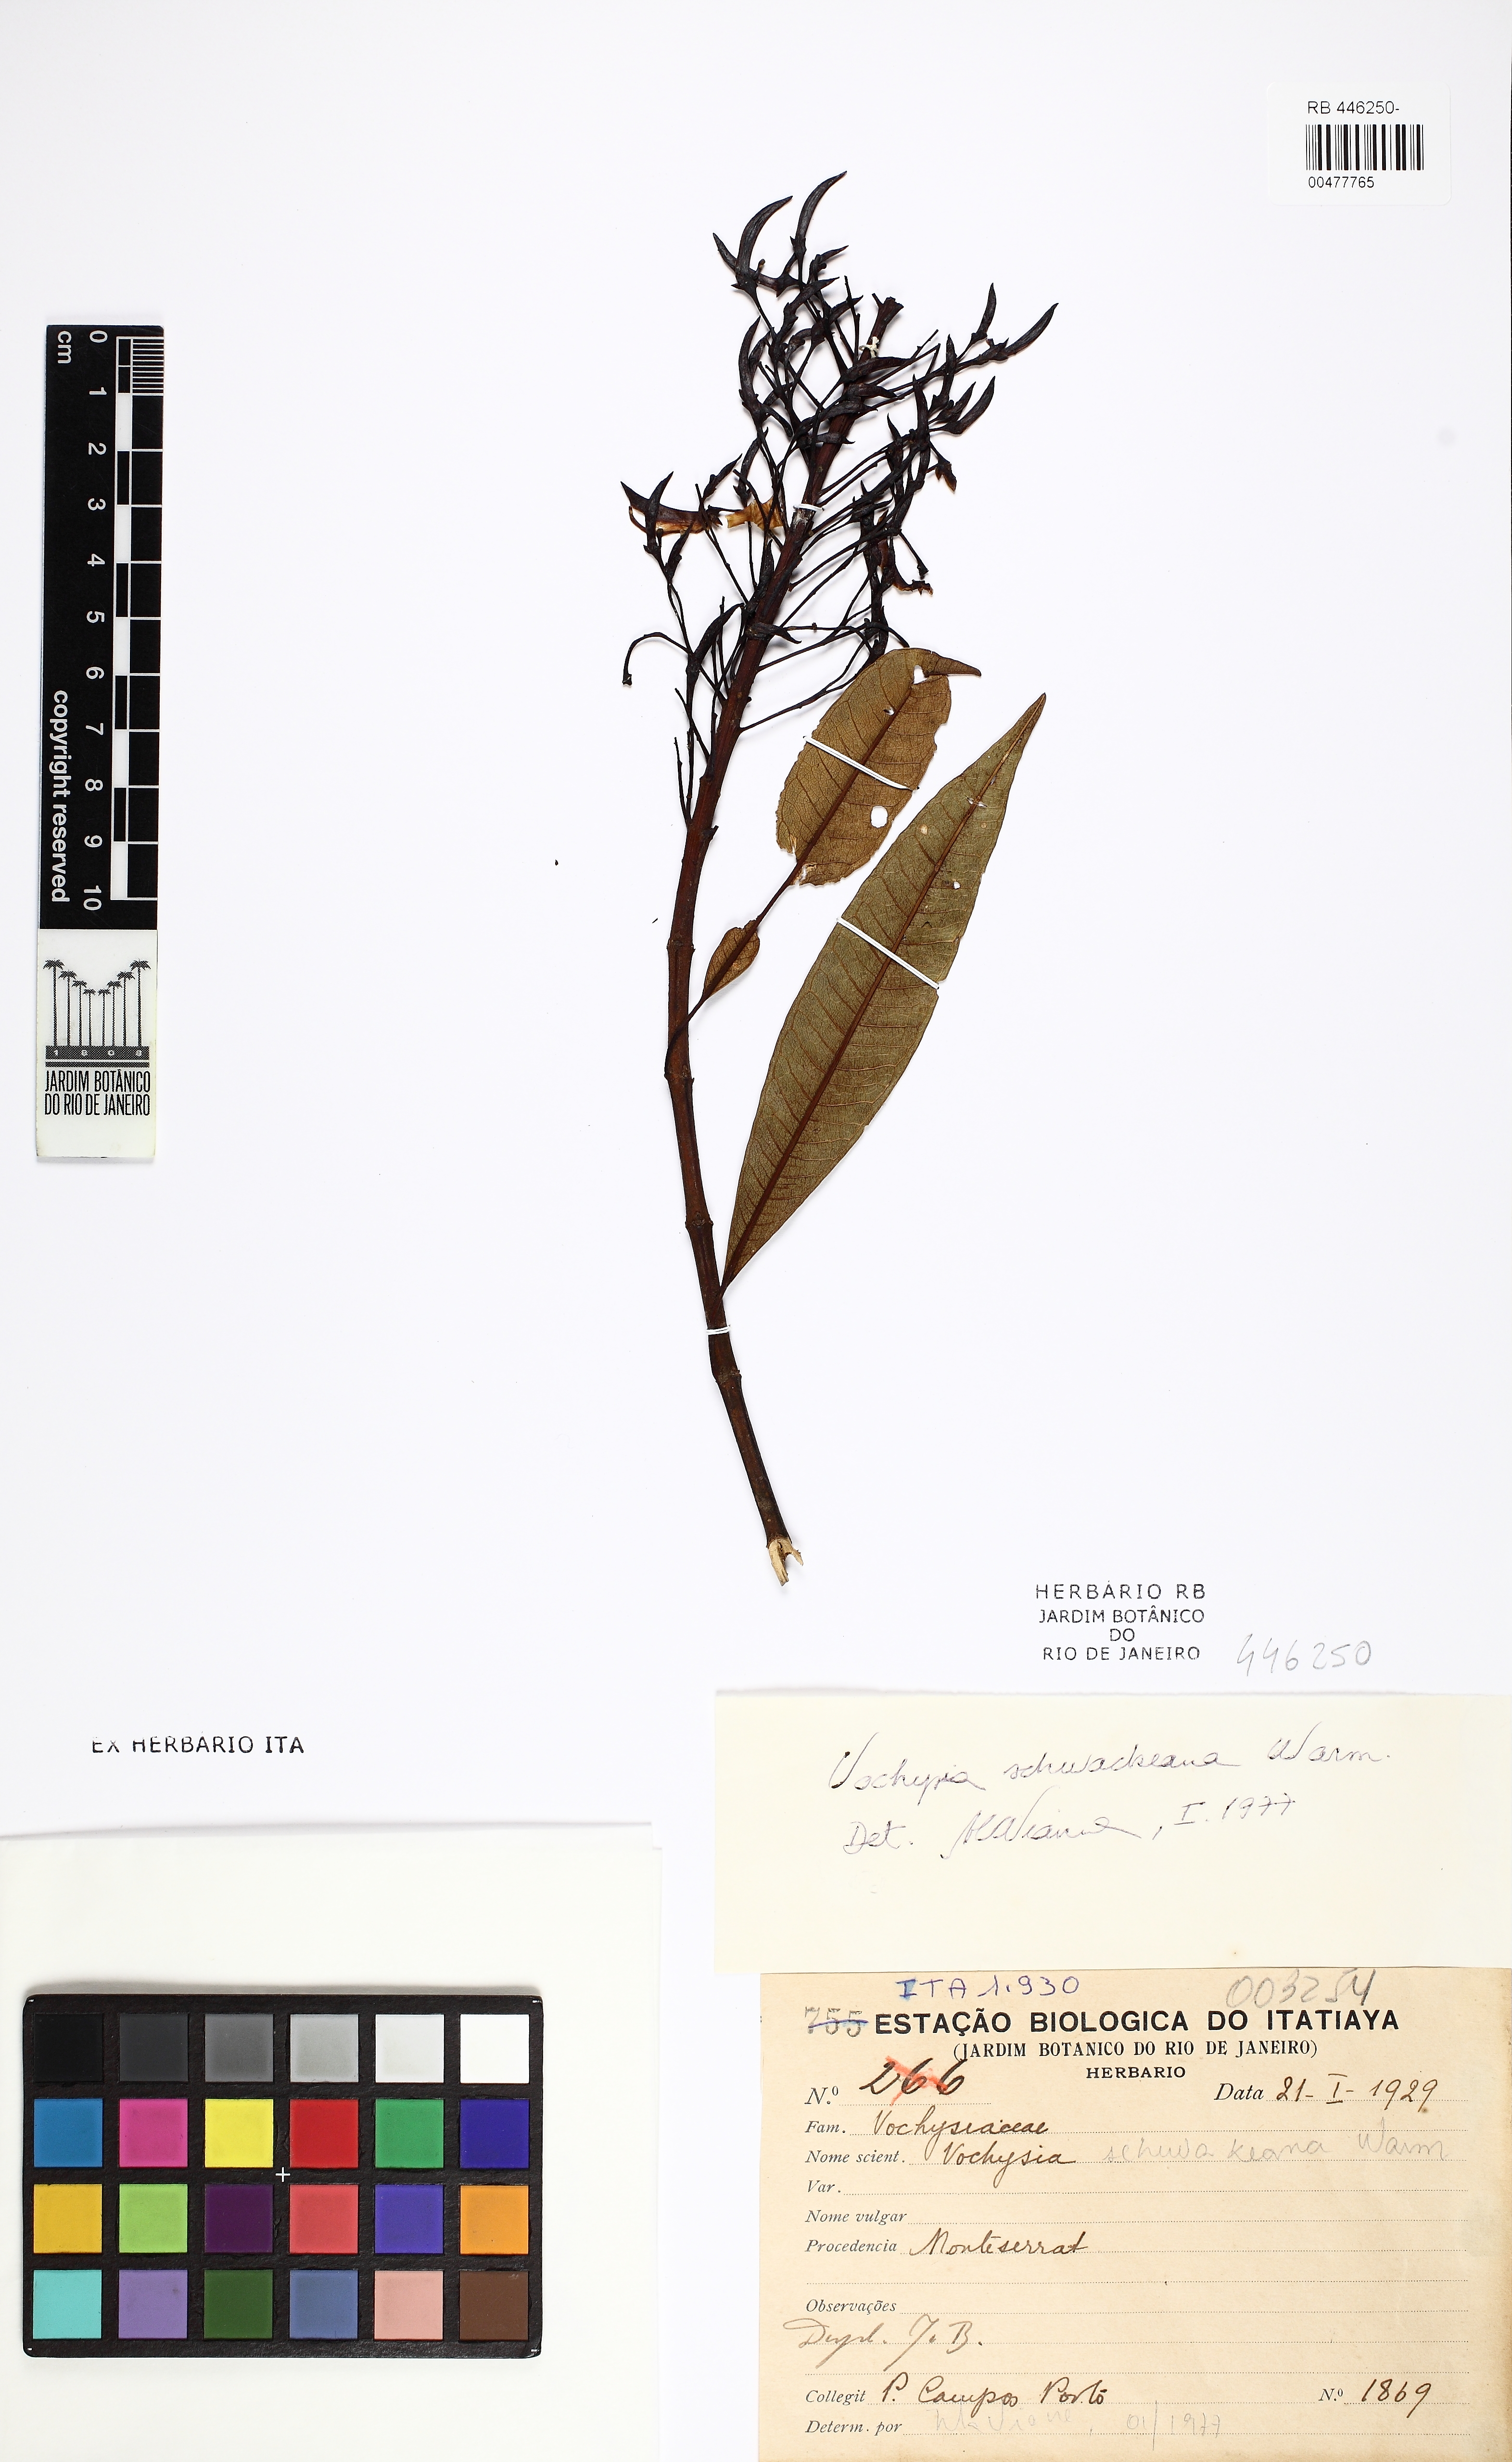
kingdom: Plantae
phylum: Tracheophyta
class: Magnoliopsida
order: Myrtales
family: Vochysiaceae
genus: Vochysia
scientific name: Vochysia schwackeana
